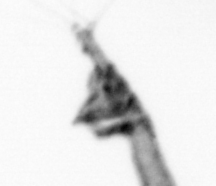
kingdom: Animalia
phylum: Arthropoda
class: Copepoda
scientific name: Copepoda
